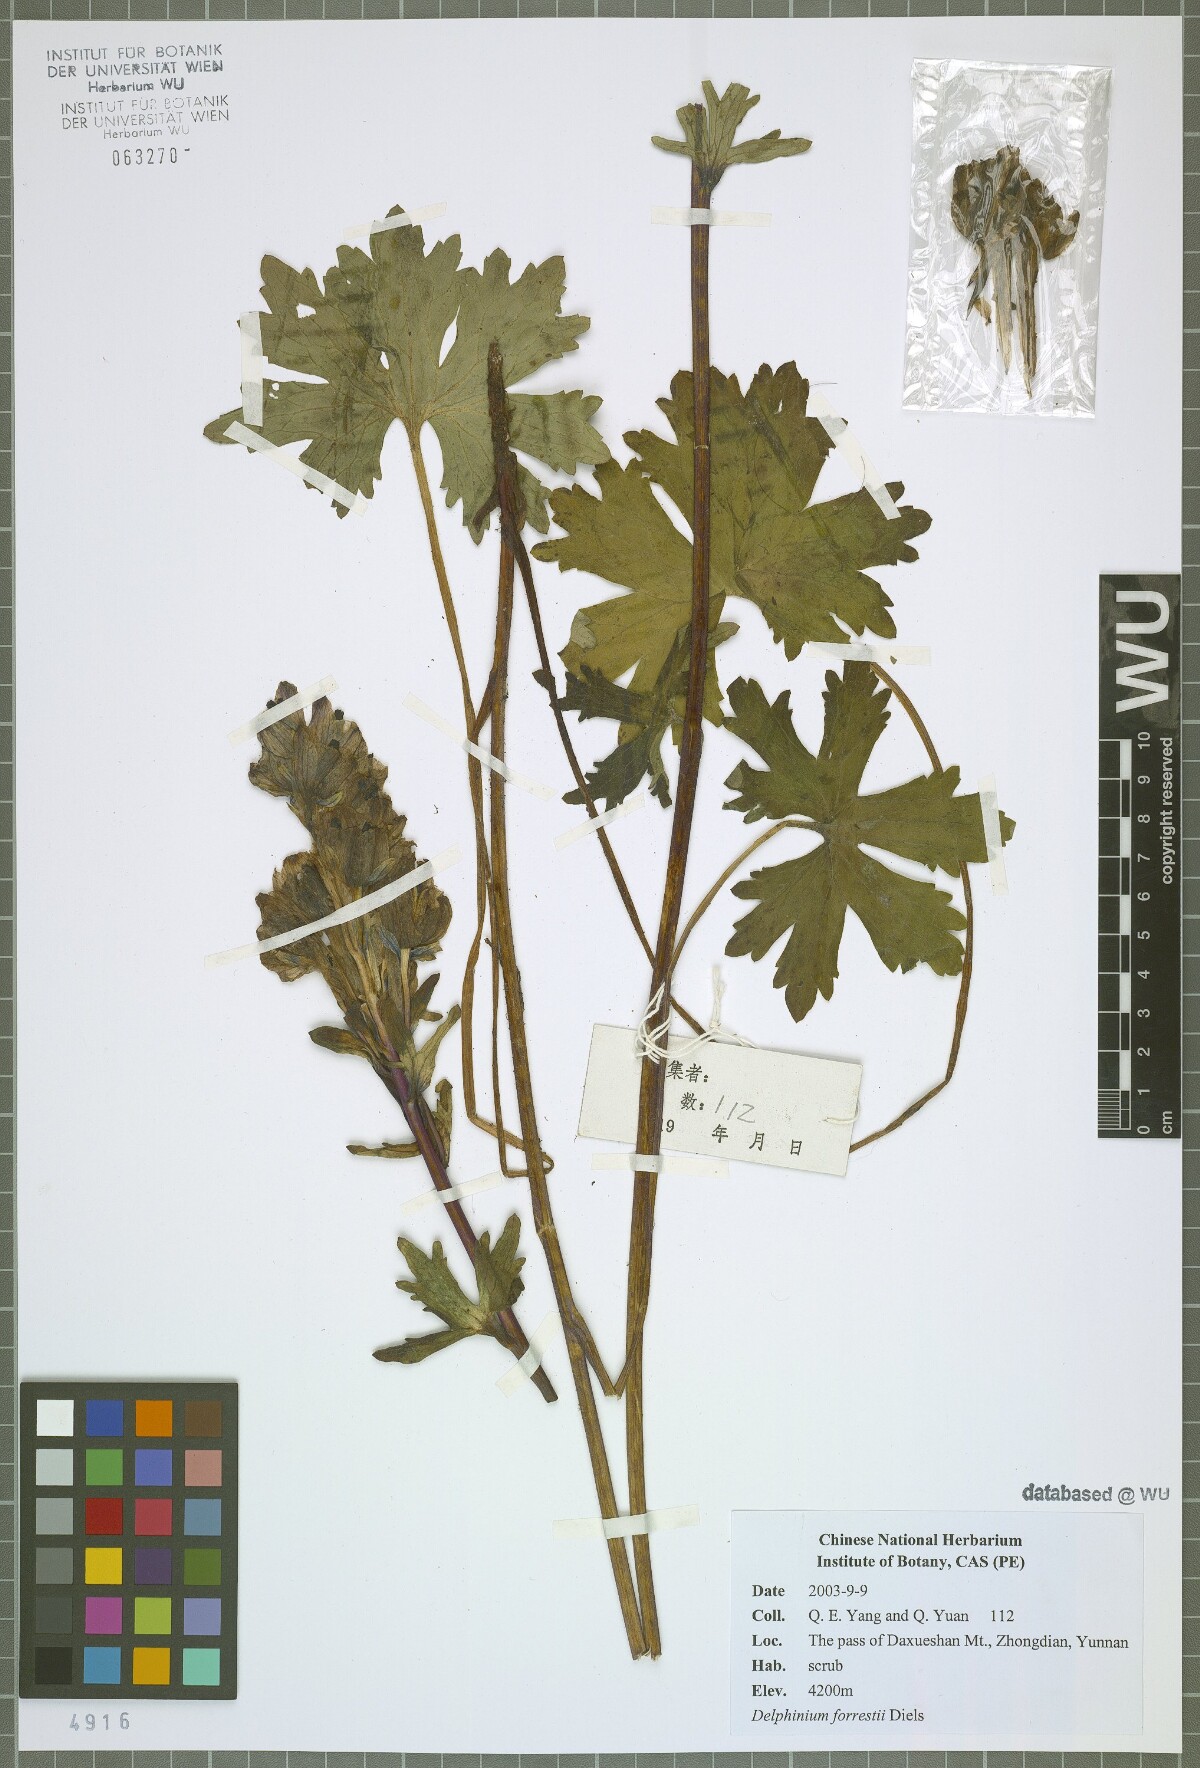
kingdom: Plantae
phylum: Tracheophyta
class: Magnoliopsida
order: Ranunculales
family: Ranunculaceae
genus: Delphinium
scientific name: Delphinium forrestii
